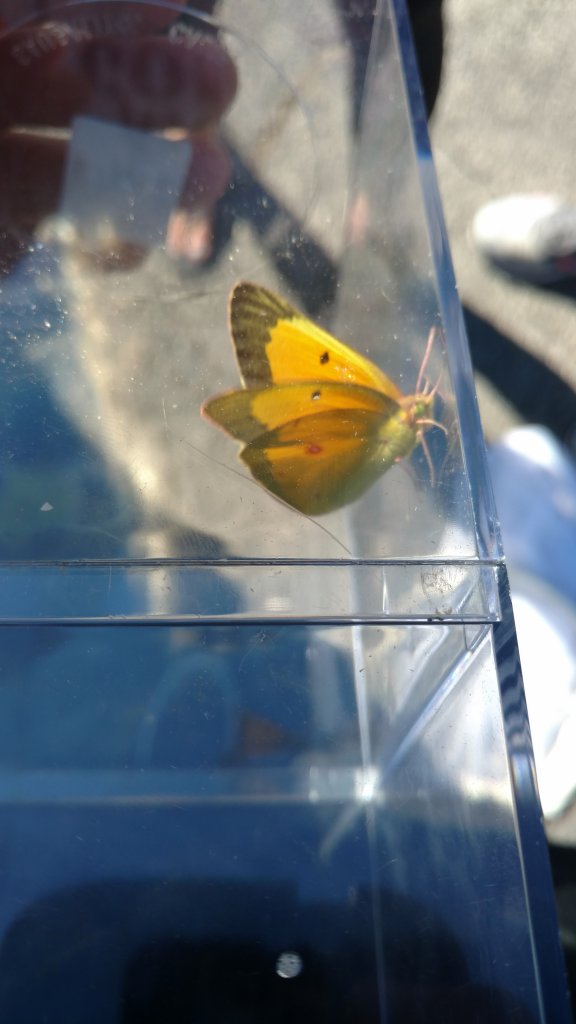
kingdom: Animalia
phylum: Arthropoda
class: Insecta
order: Lepidoptera
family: Pieridae
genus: Colias
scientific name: Colias eurytheme
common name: Orange Sulphur
